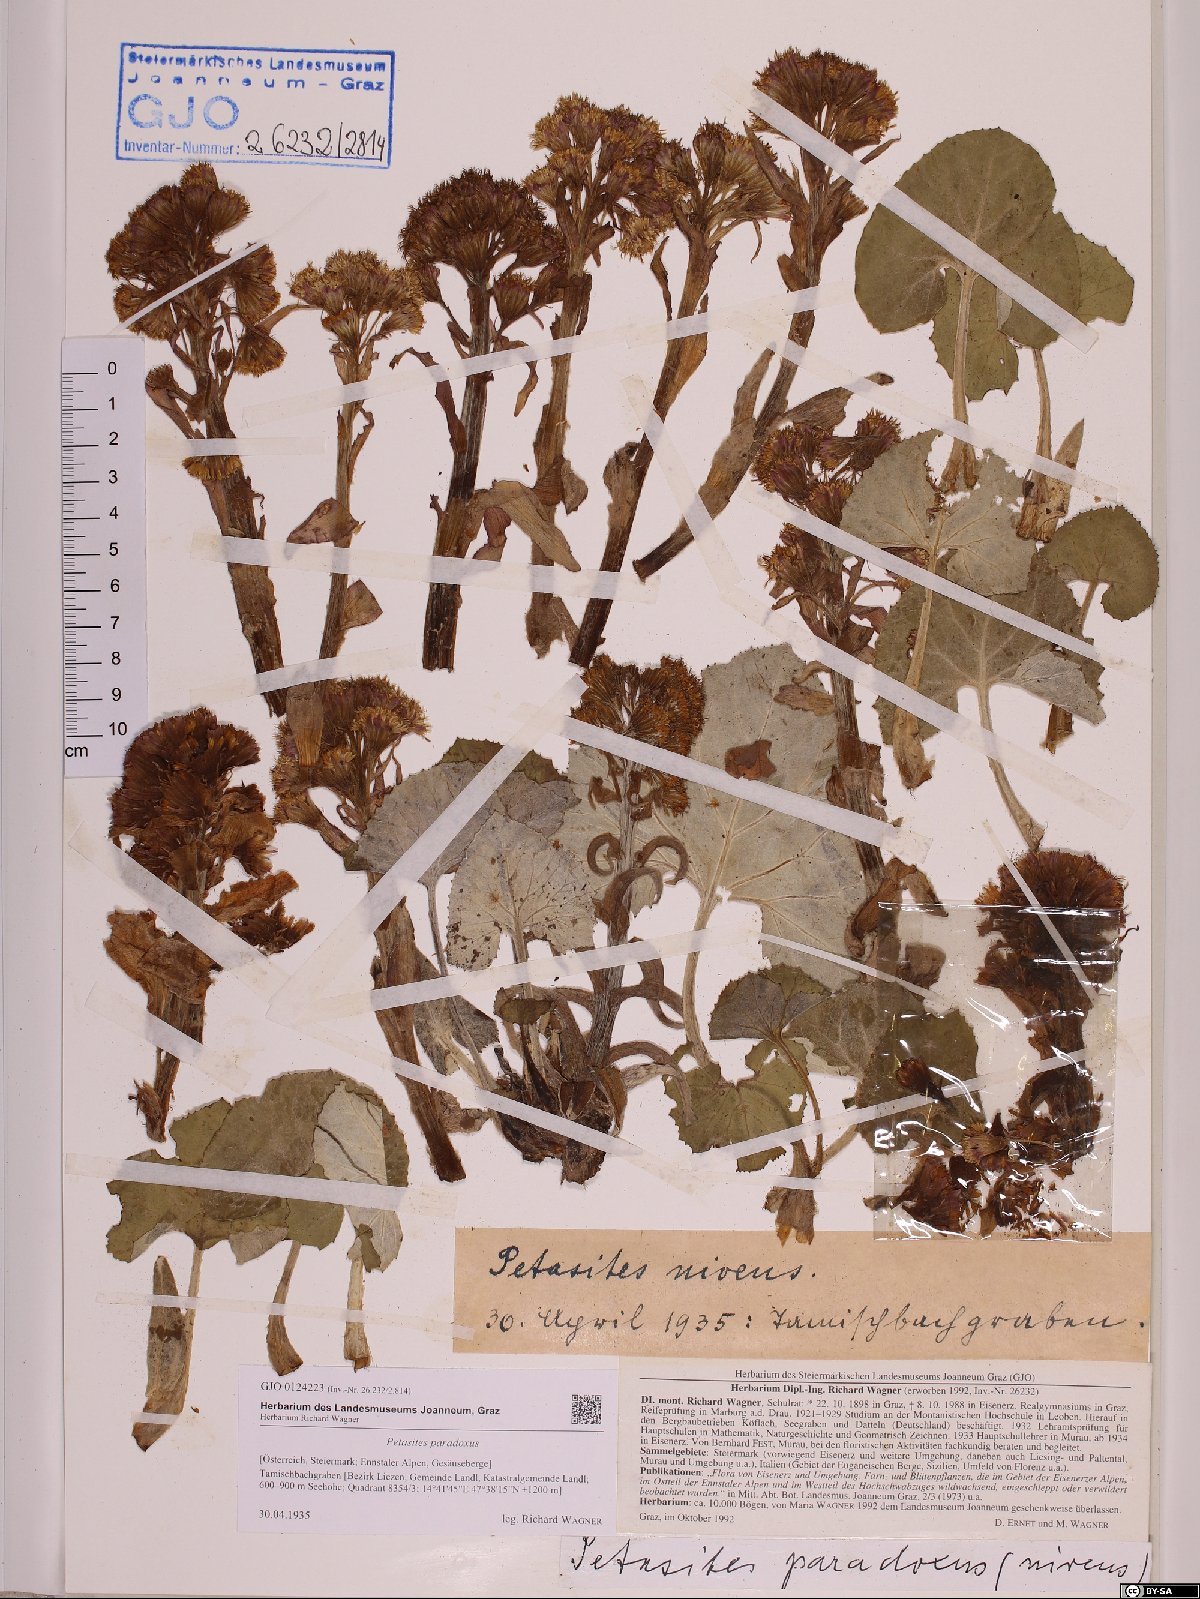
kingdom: Plantae
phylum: Tracheophyta
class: Magnoliopsida
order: Asterales
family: Asteraceae
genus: Petasites
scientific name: Petasites paradoxus
